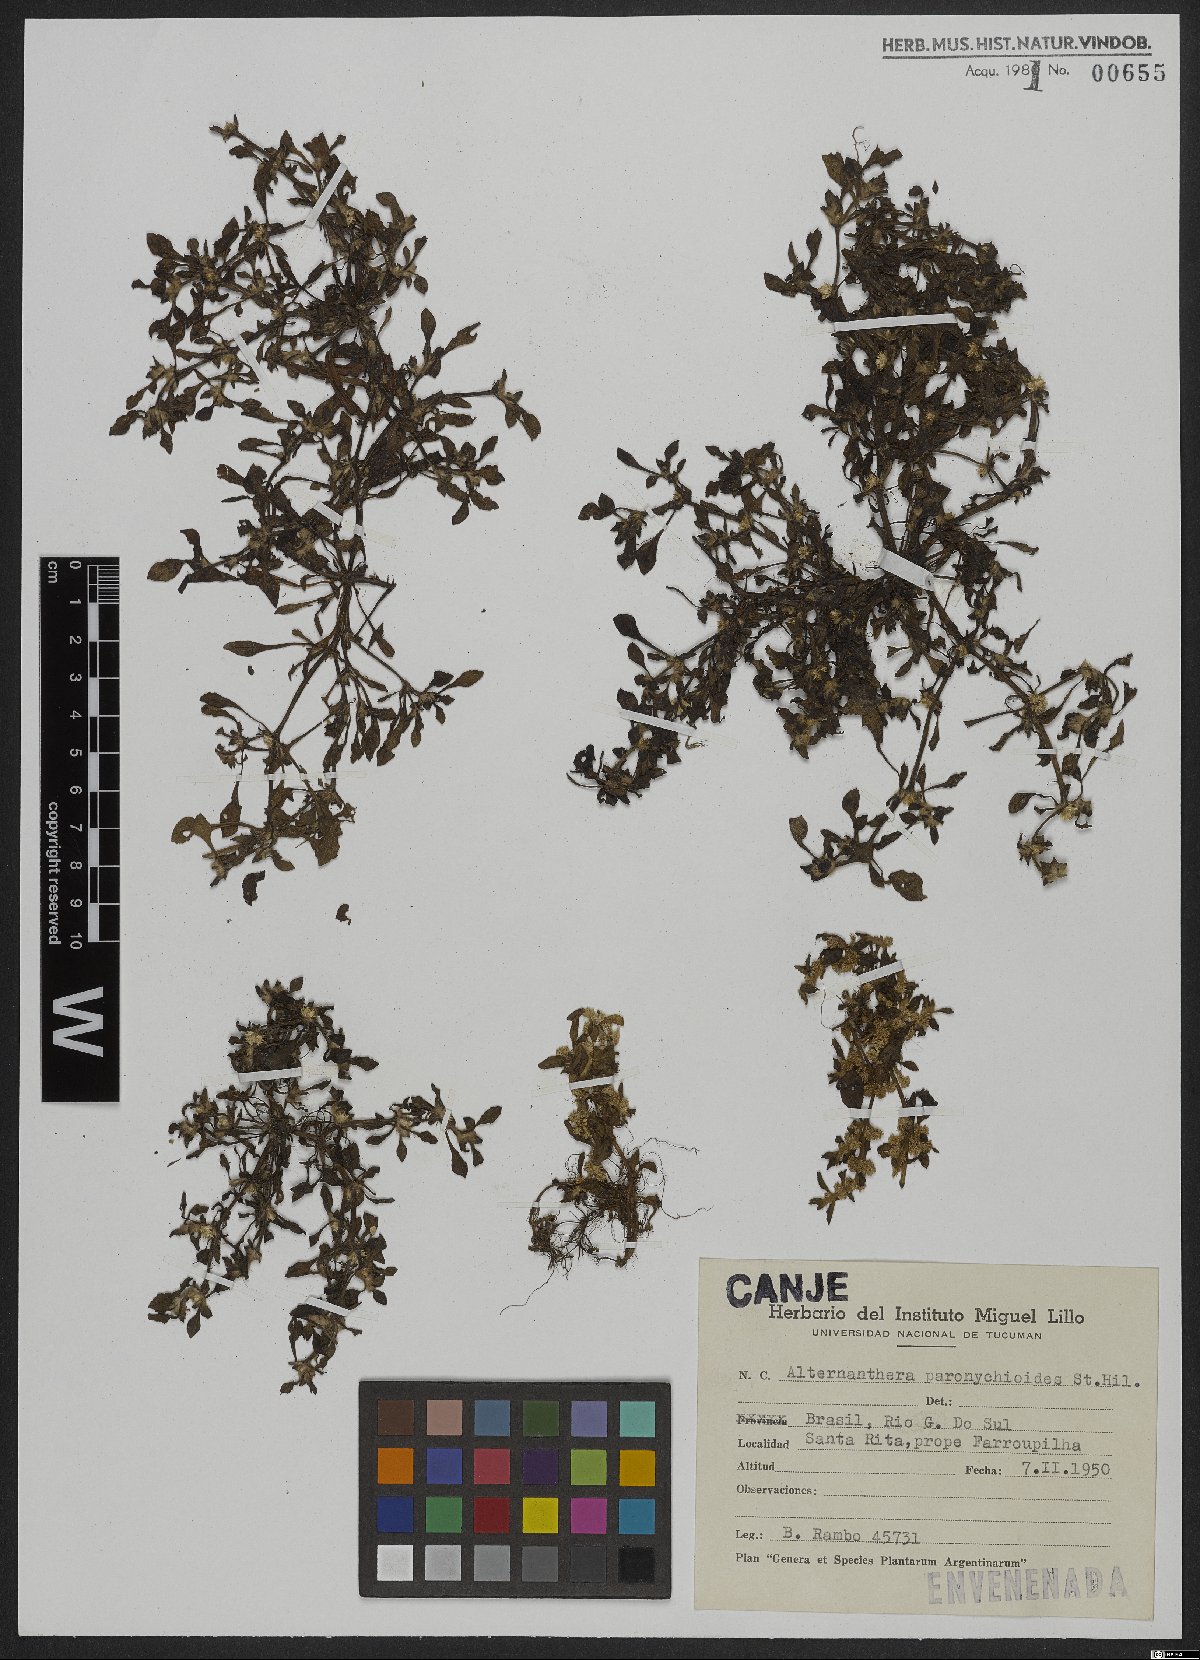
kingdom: Plantae
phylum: Tracheophyta
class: Magnoliopsida
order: Caryophyllales
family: Amaranthaceae
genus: Alternanthera
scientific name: Alternanthera paronychioides
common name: Smooth joyweed
